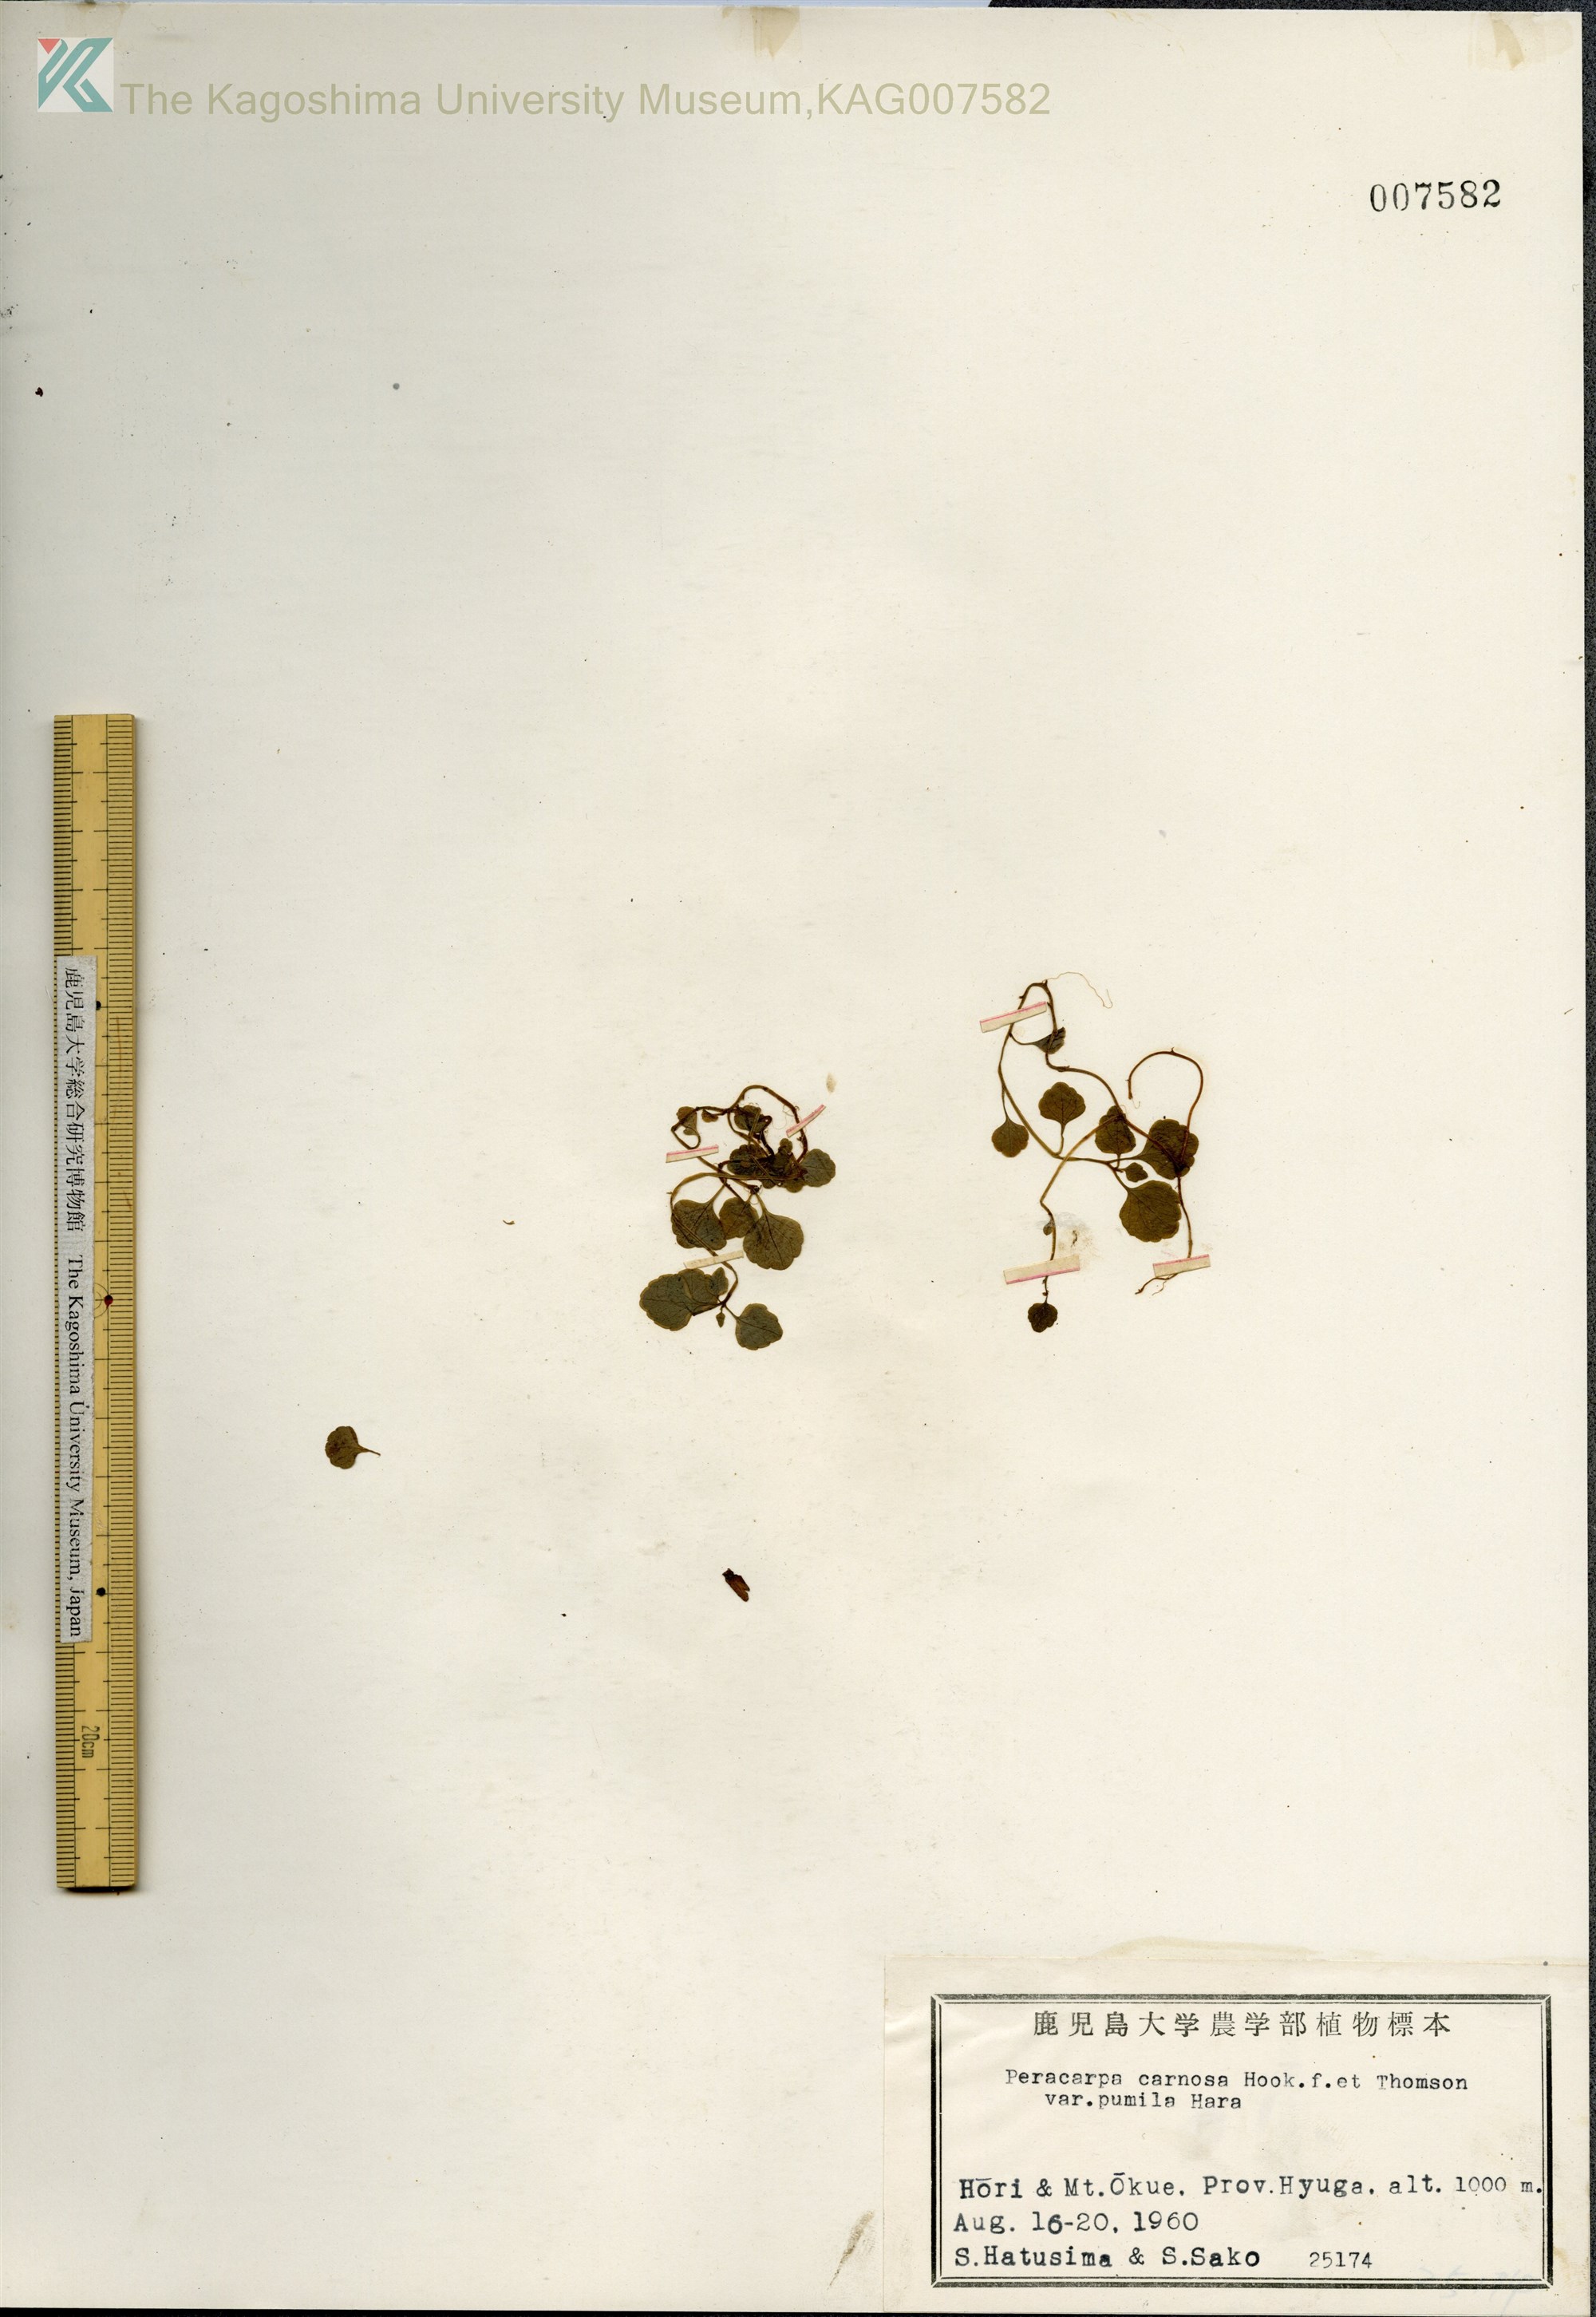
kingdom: Plantae
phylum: Tracheophyta
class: Magnoliopsida
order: Asterales
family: Campanulaceae
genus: Peracarpa
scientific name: Peracarpa carnosa
